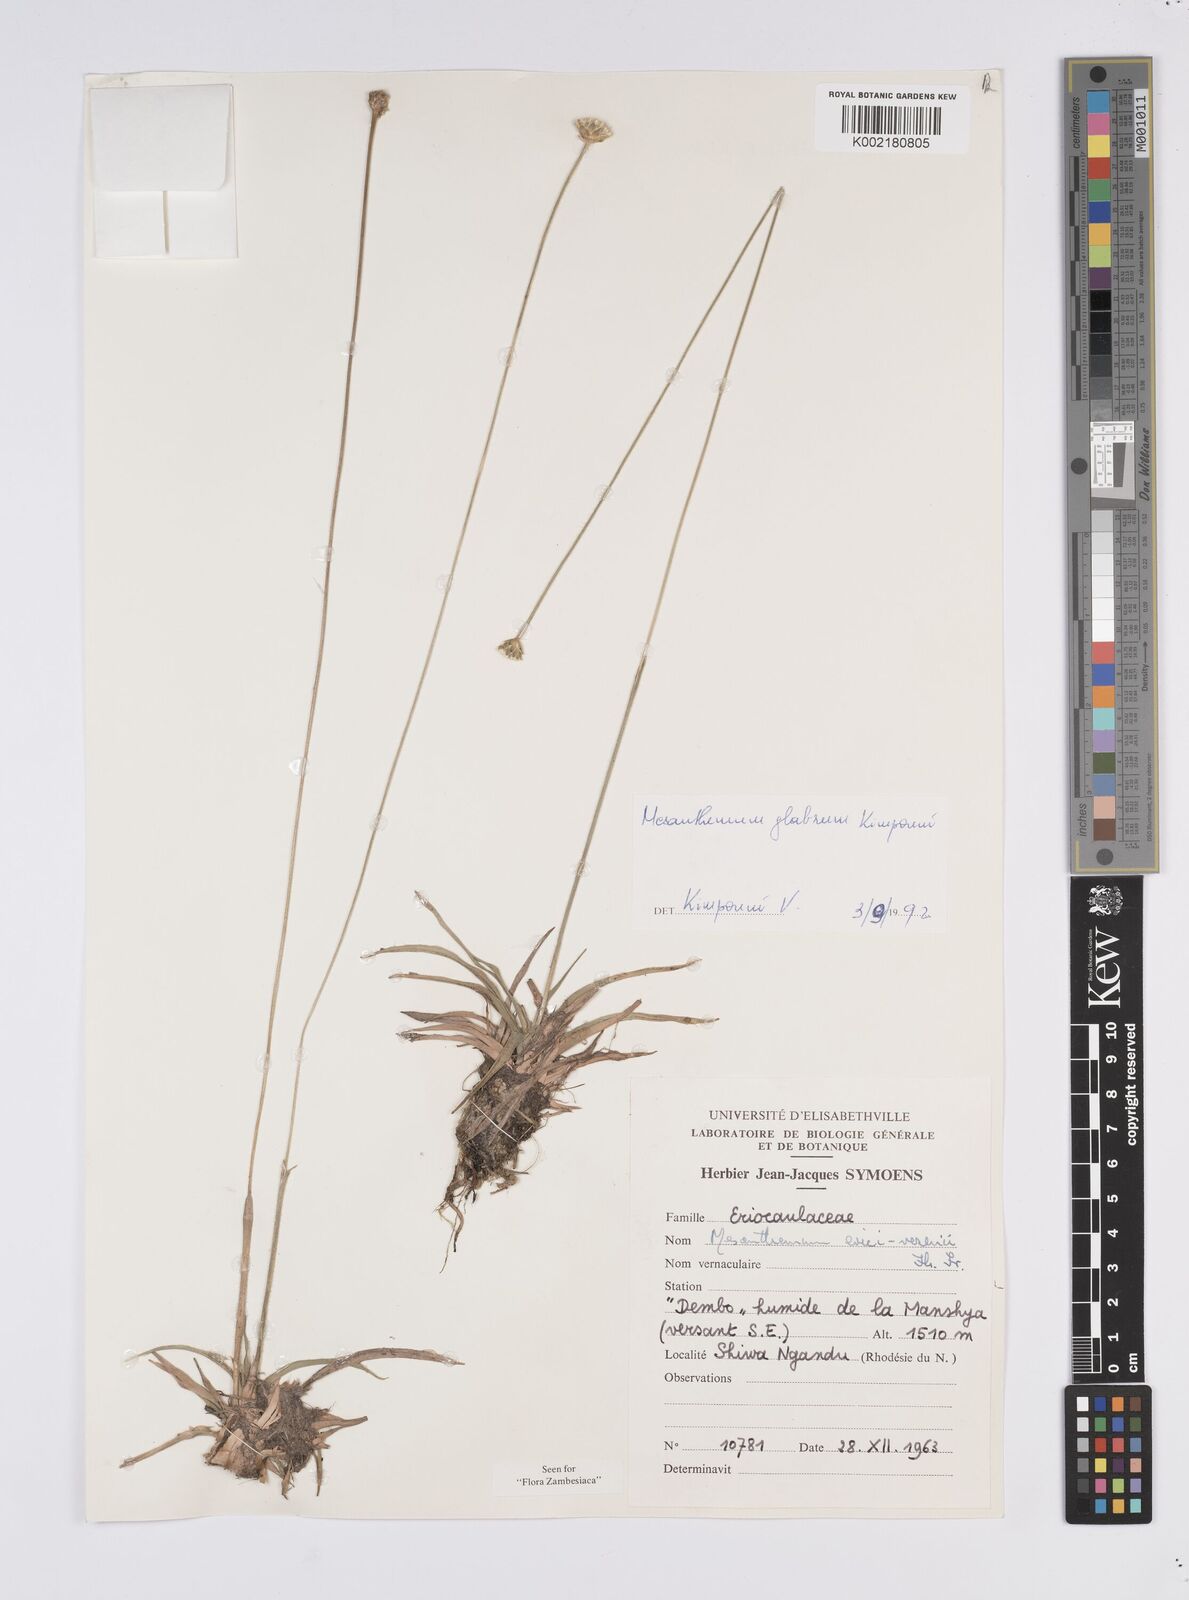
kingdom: Plantae
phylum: Tracheophyta
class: Liliopsida
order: Poales
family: Eriocaulaceae
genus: Mesanthemum
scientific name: Mesanthemum glabrum
